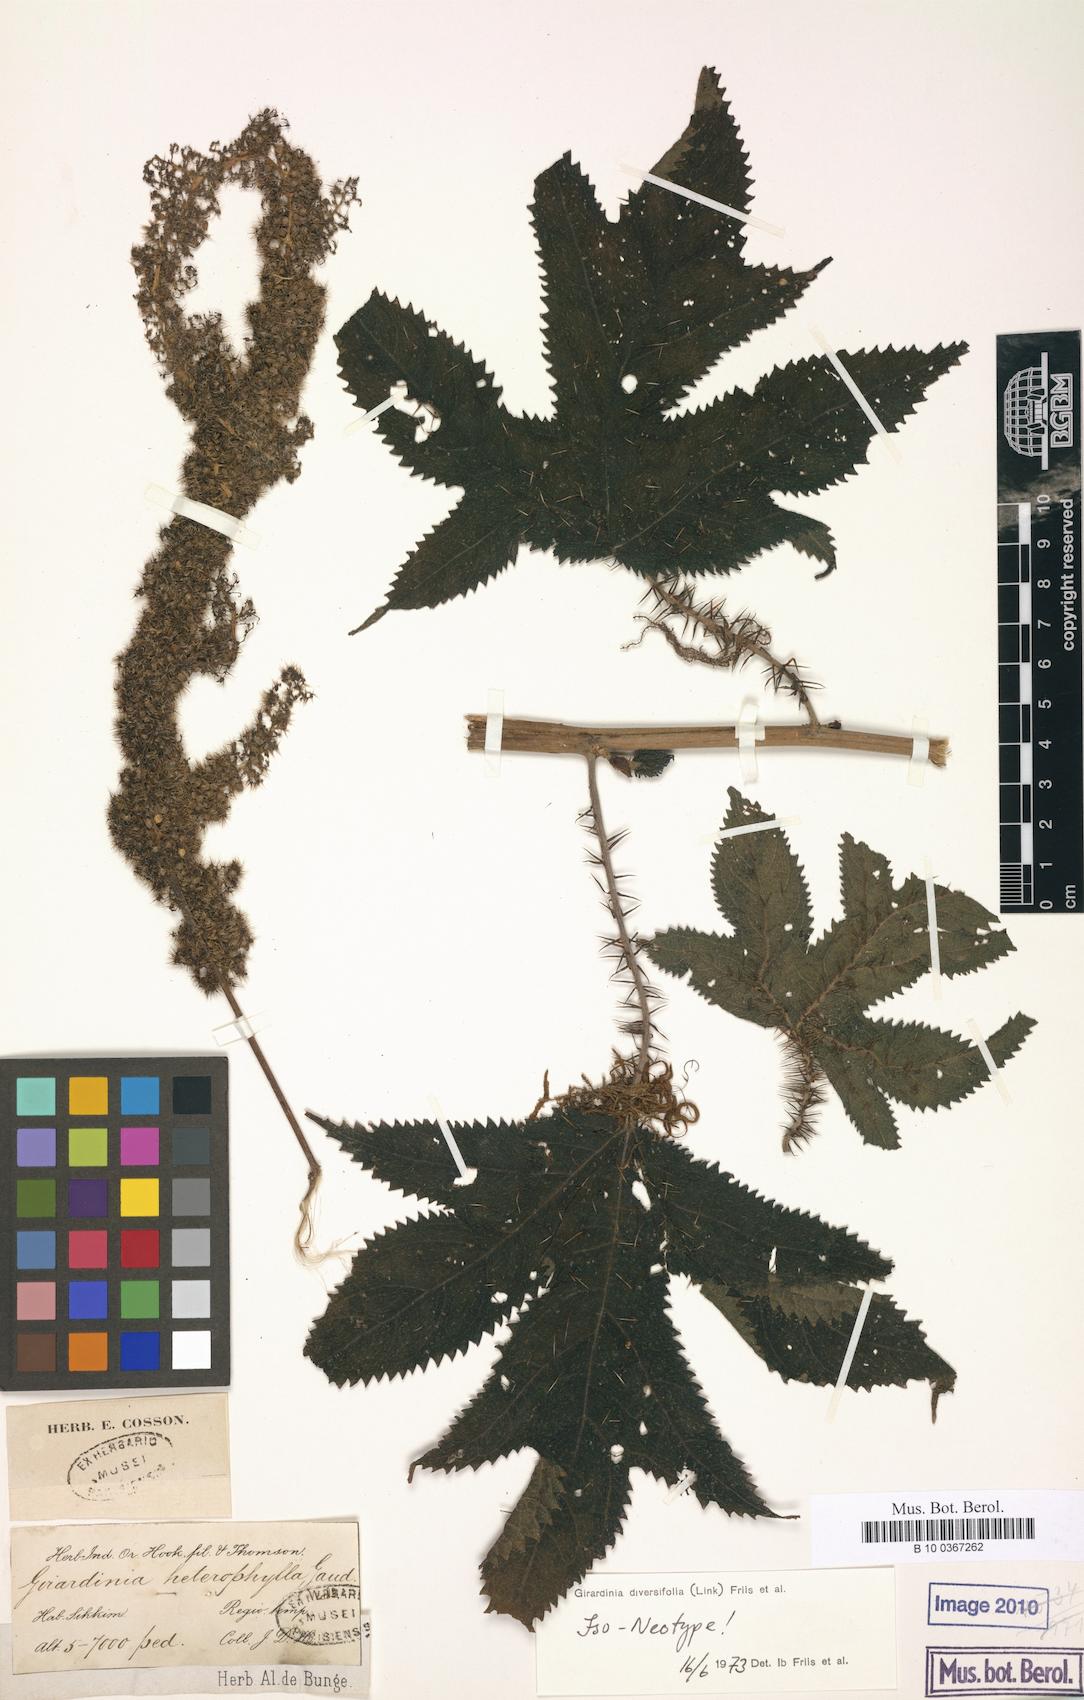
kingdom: Plantae
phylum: Tracheophyta
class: Magnoliopsida
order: Rosales
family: Urticaceae
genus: Girardinia
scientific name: Girardinia diversifolia
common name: Himalayan-nettle
